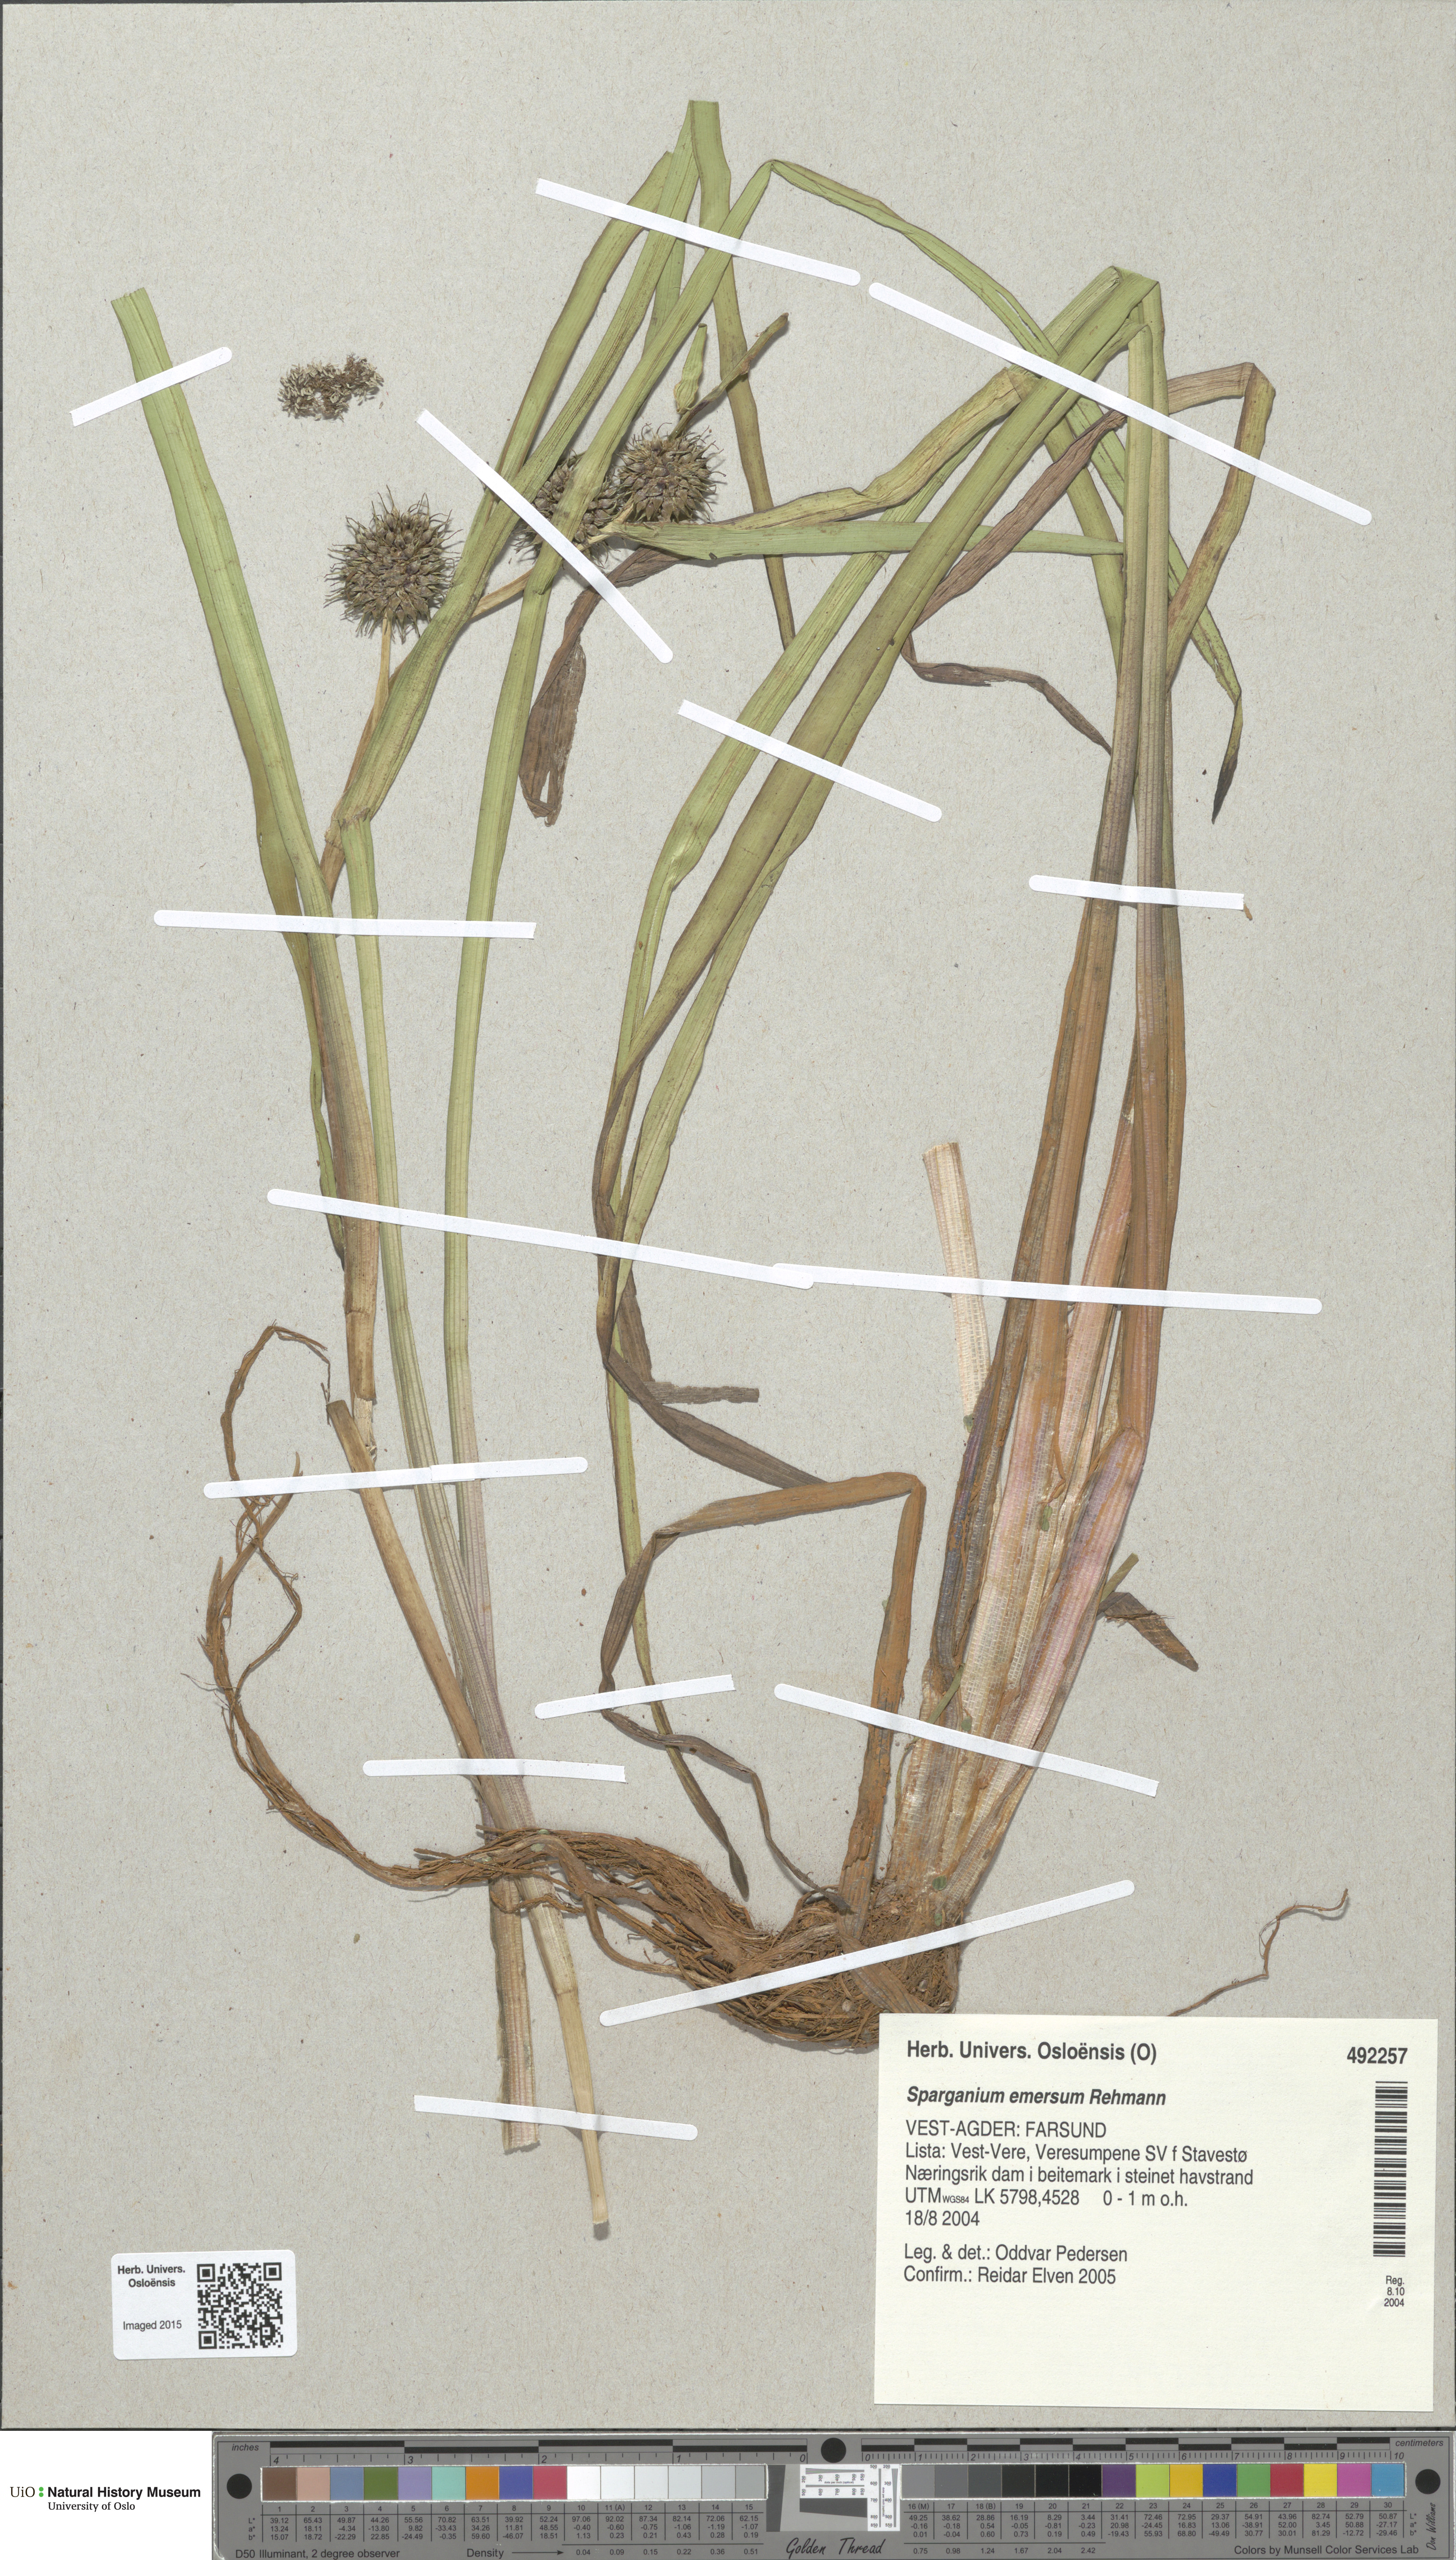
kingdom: Plantae
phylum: Tracheophyta
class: Liliopsida
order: Poales
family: Typhaceae
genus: Sparganium
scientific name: Sparganium emersum
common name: Unbranched bur-reed
